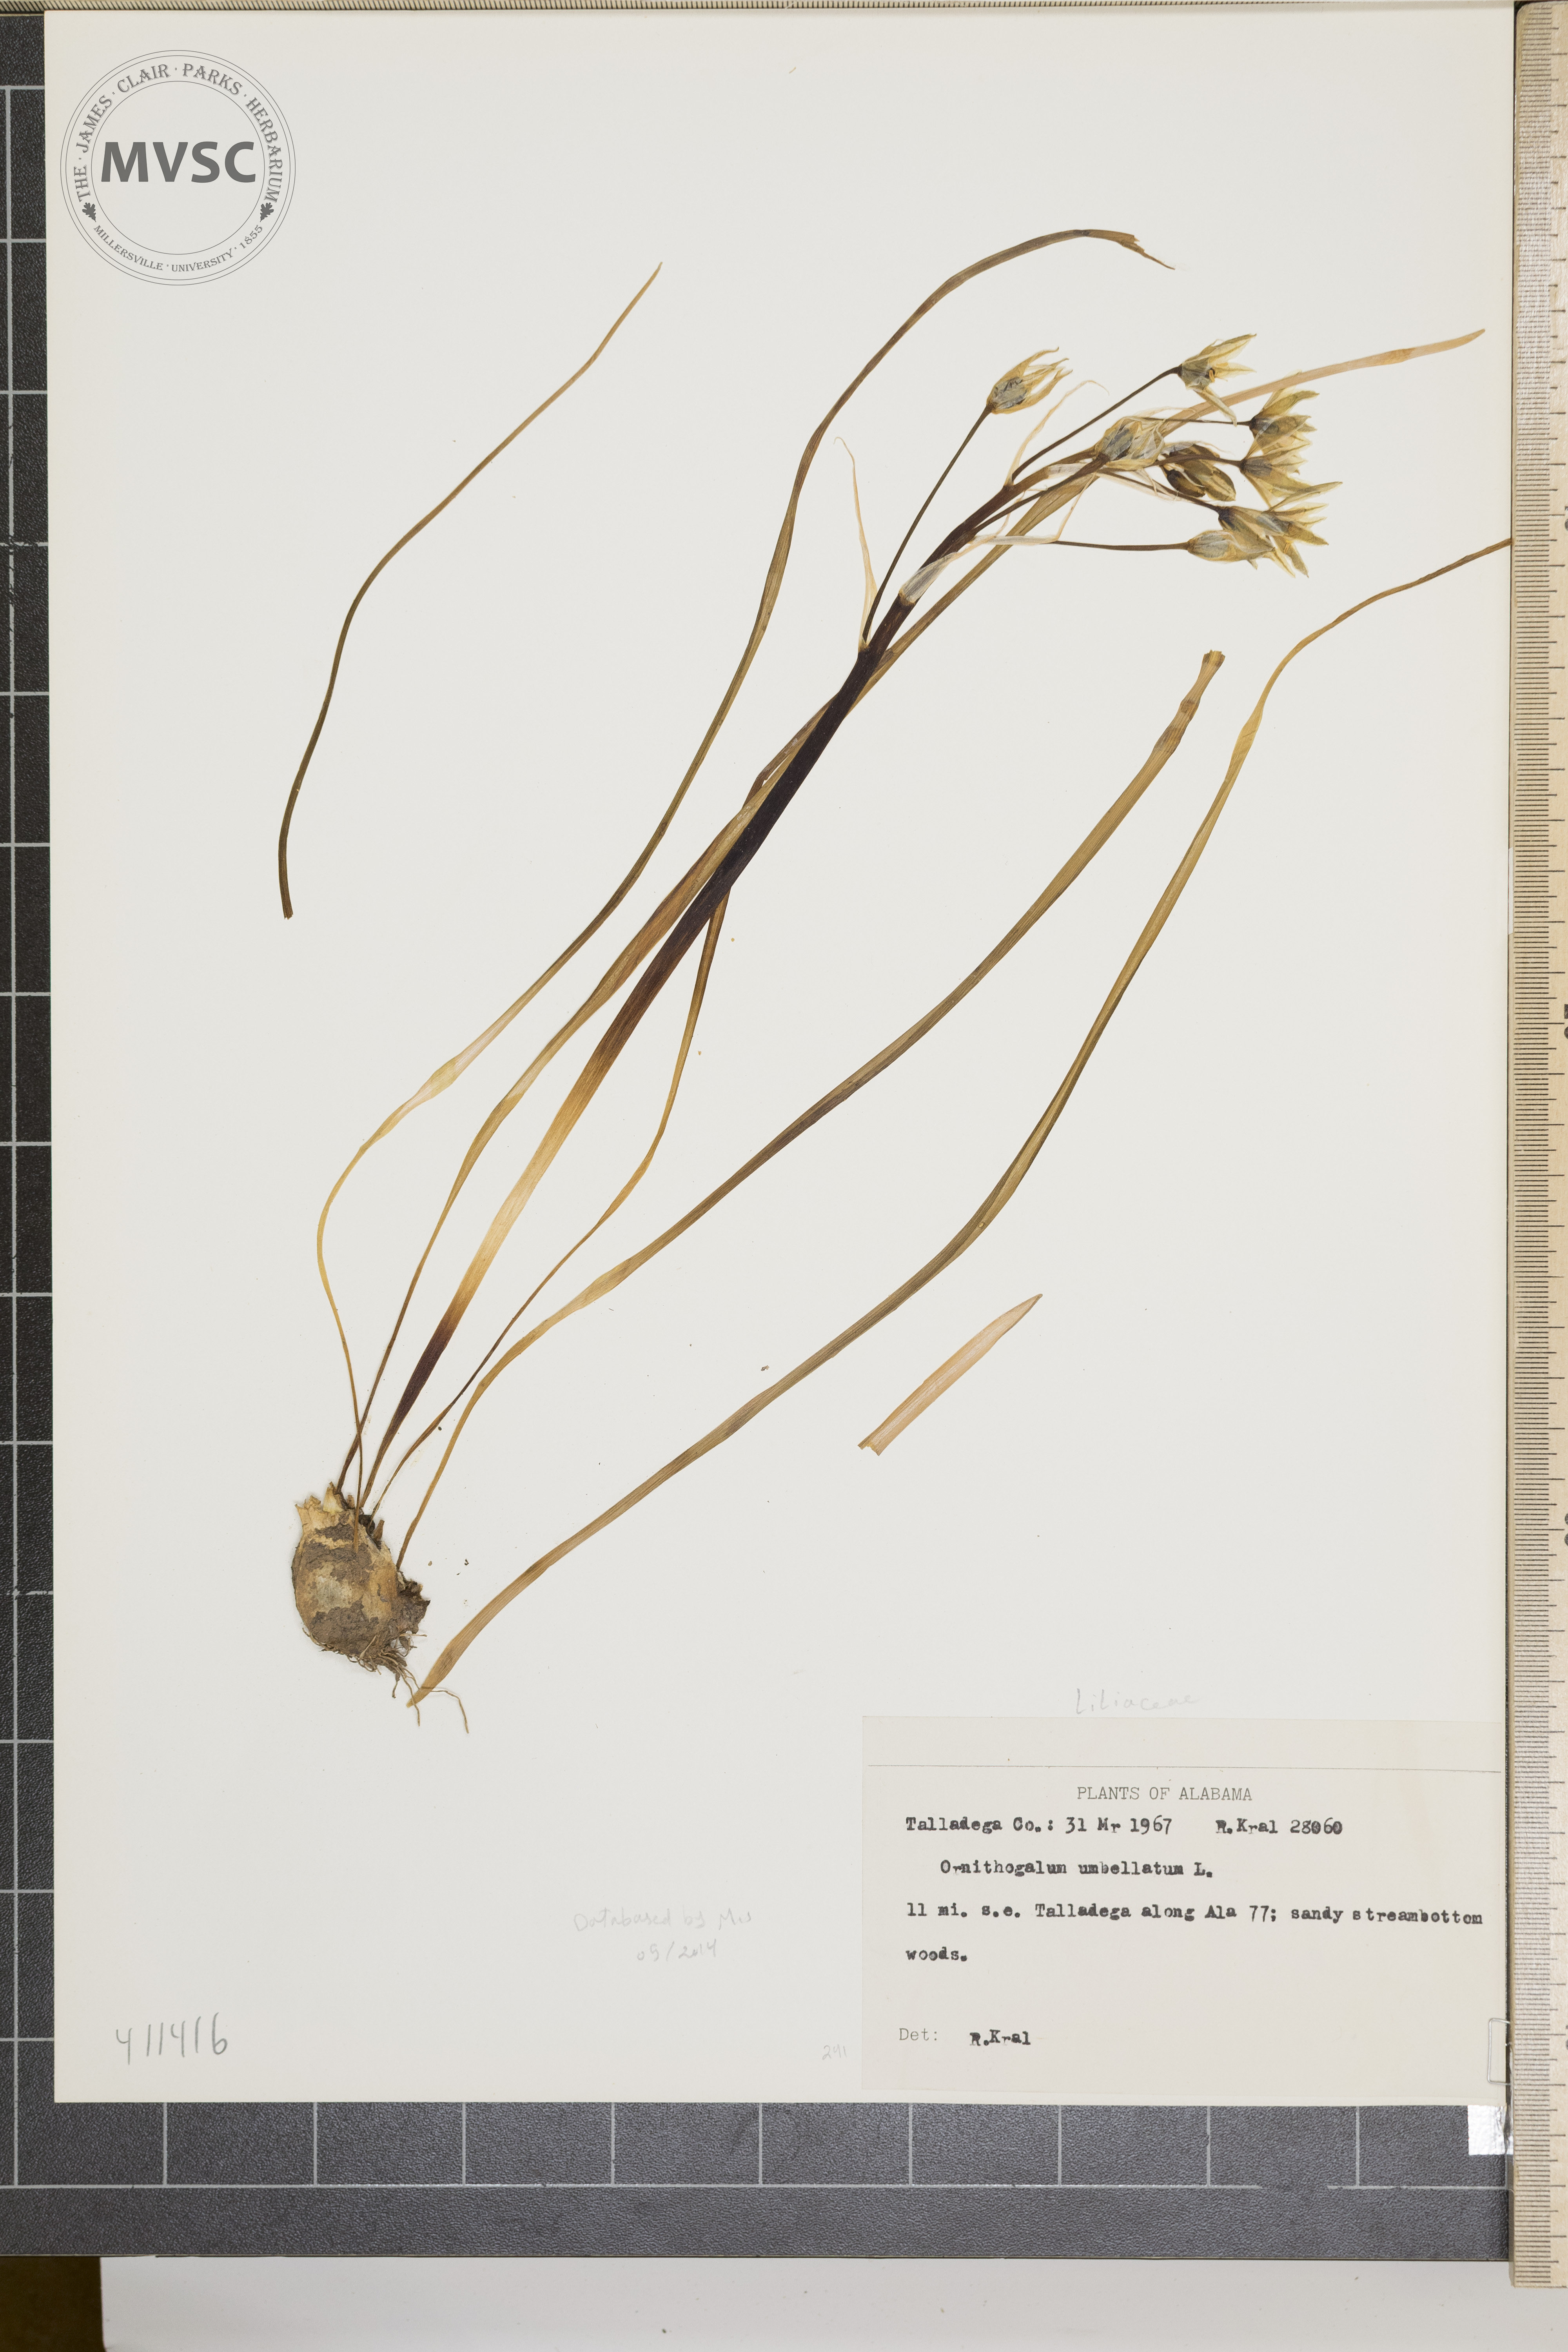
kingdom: Plantae
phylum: Tracheophyta
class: Liliopsida
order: Asparagales
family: Asparagaceae
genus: Ornithogalum
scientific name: Ornithogalum umbellatum
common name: Garden star-of-bethlehem
